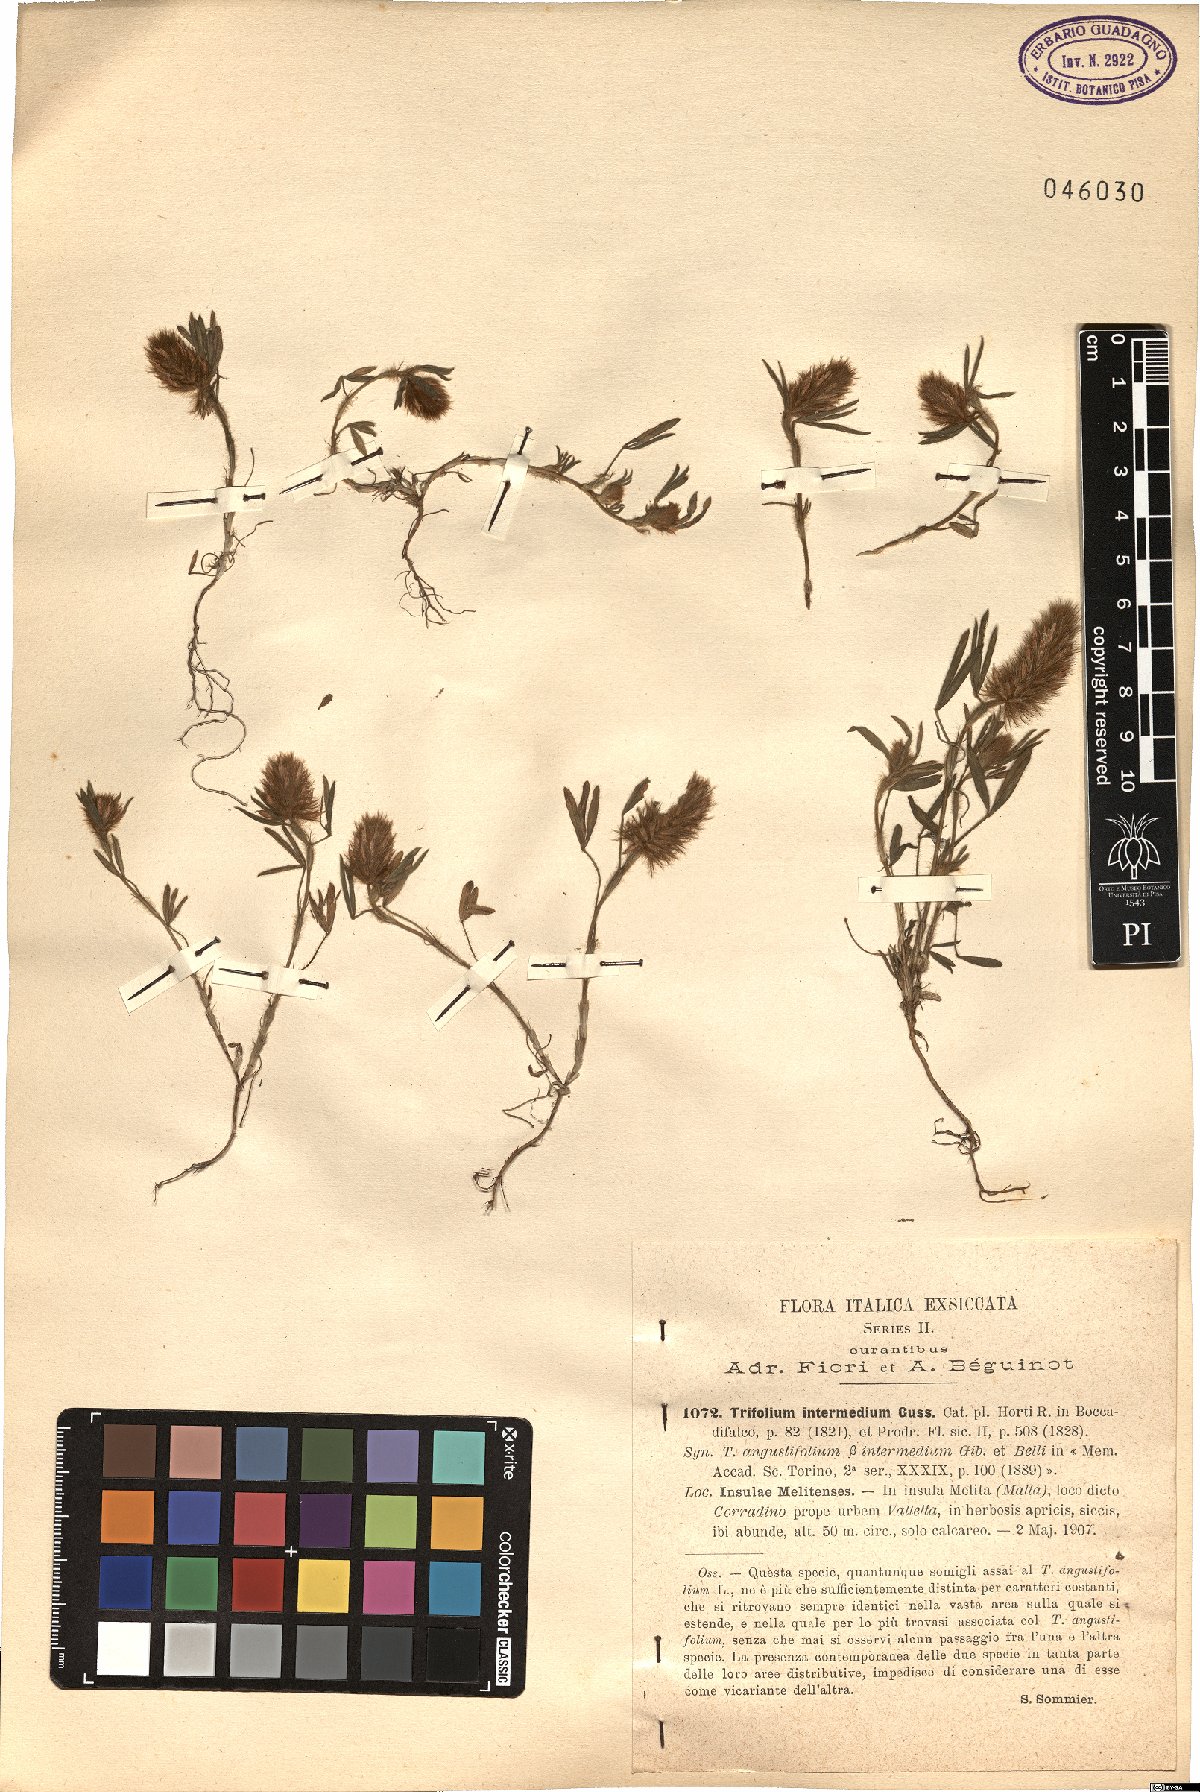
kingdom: Plantae
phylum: Tracheophyta
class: Magnoliopsida
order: Fabales
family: Fabaceae
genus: Trifolium
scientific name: Trifolium infamia-ponertii
